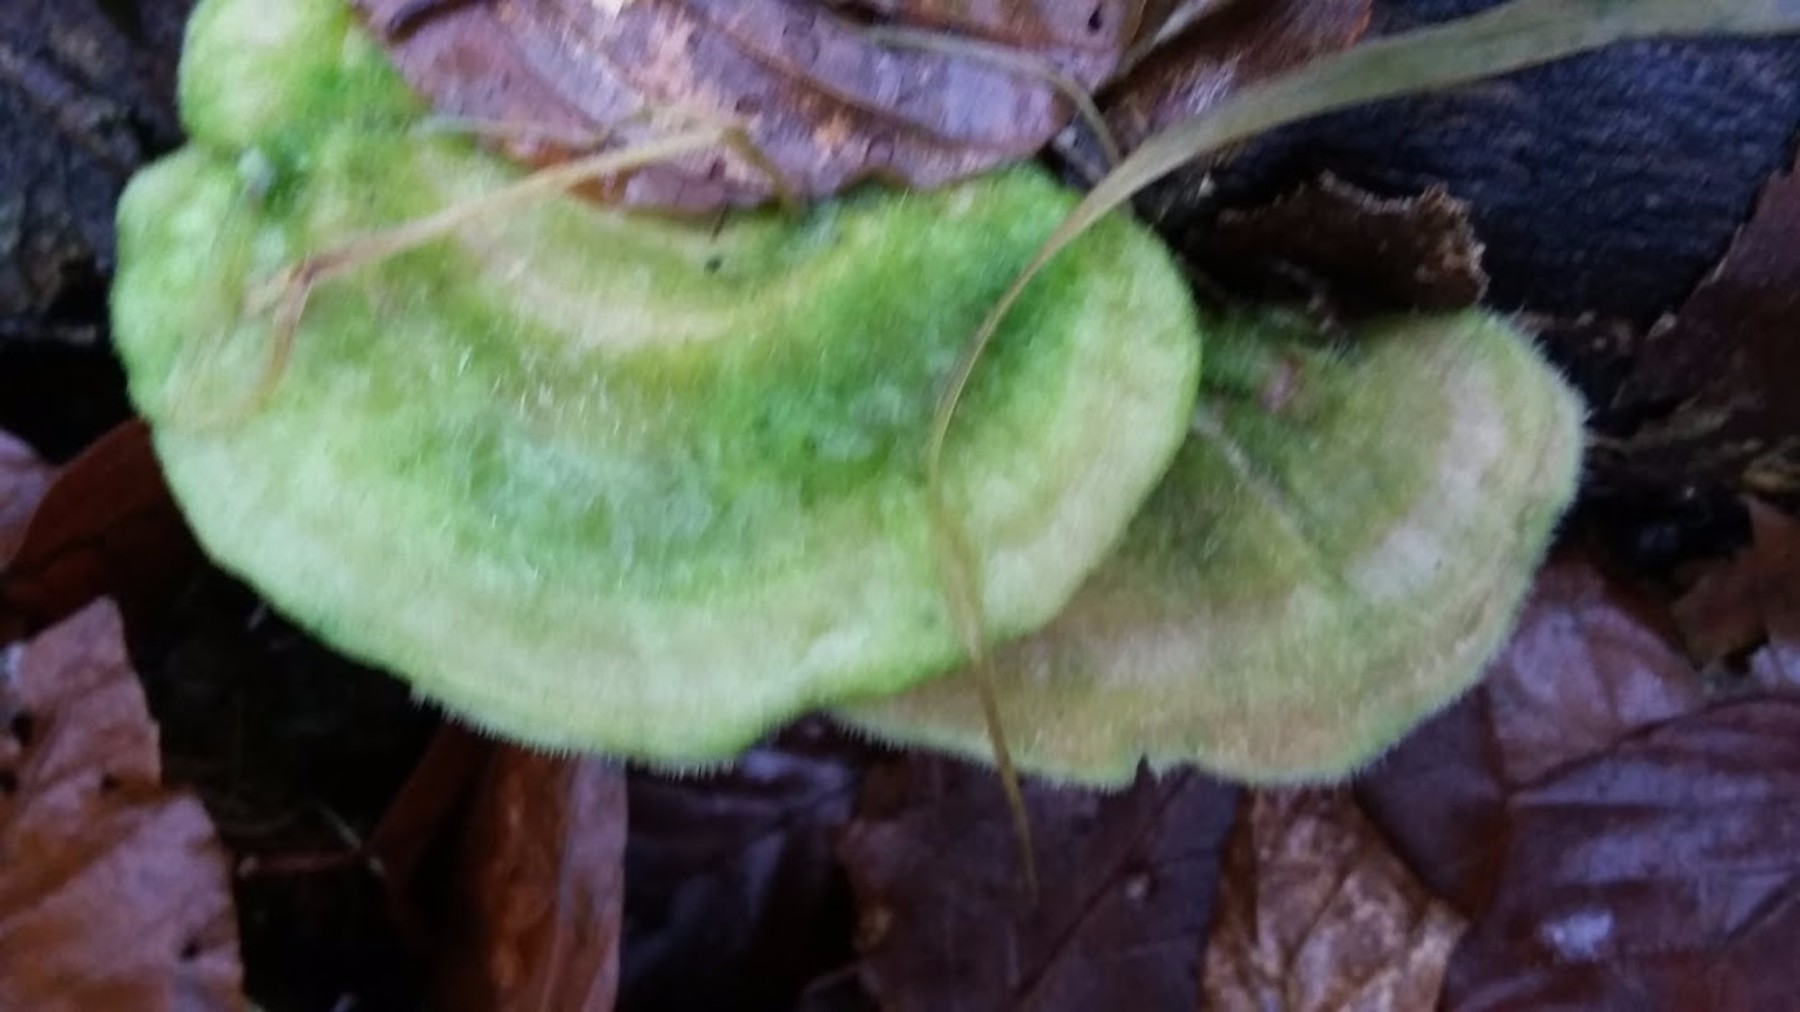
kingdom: Fungi
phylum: Basidiomycota
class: Agaricomycetes
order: Polyporales
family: Polyporaceae
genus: Trametes
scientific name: Trametes hirsuta
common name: håret læderporesvamp
